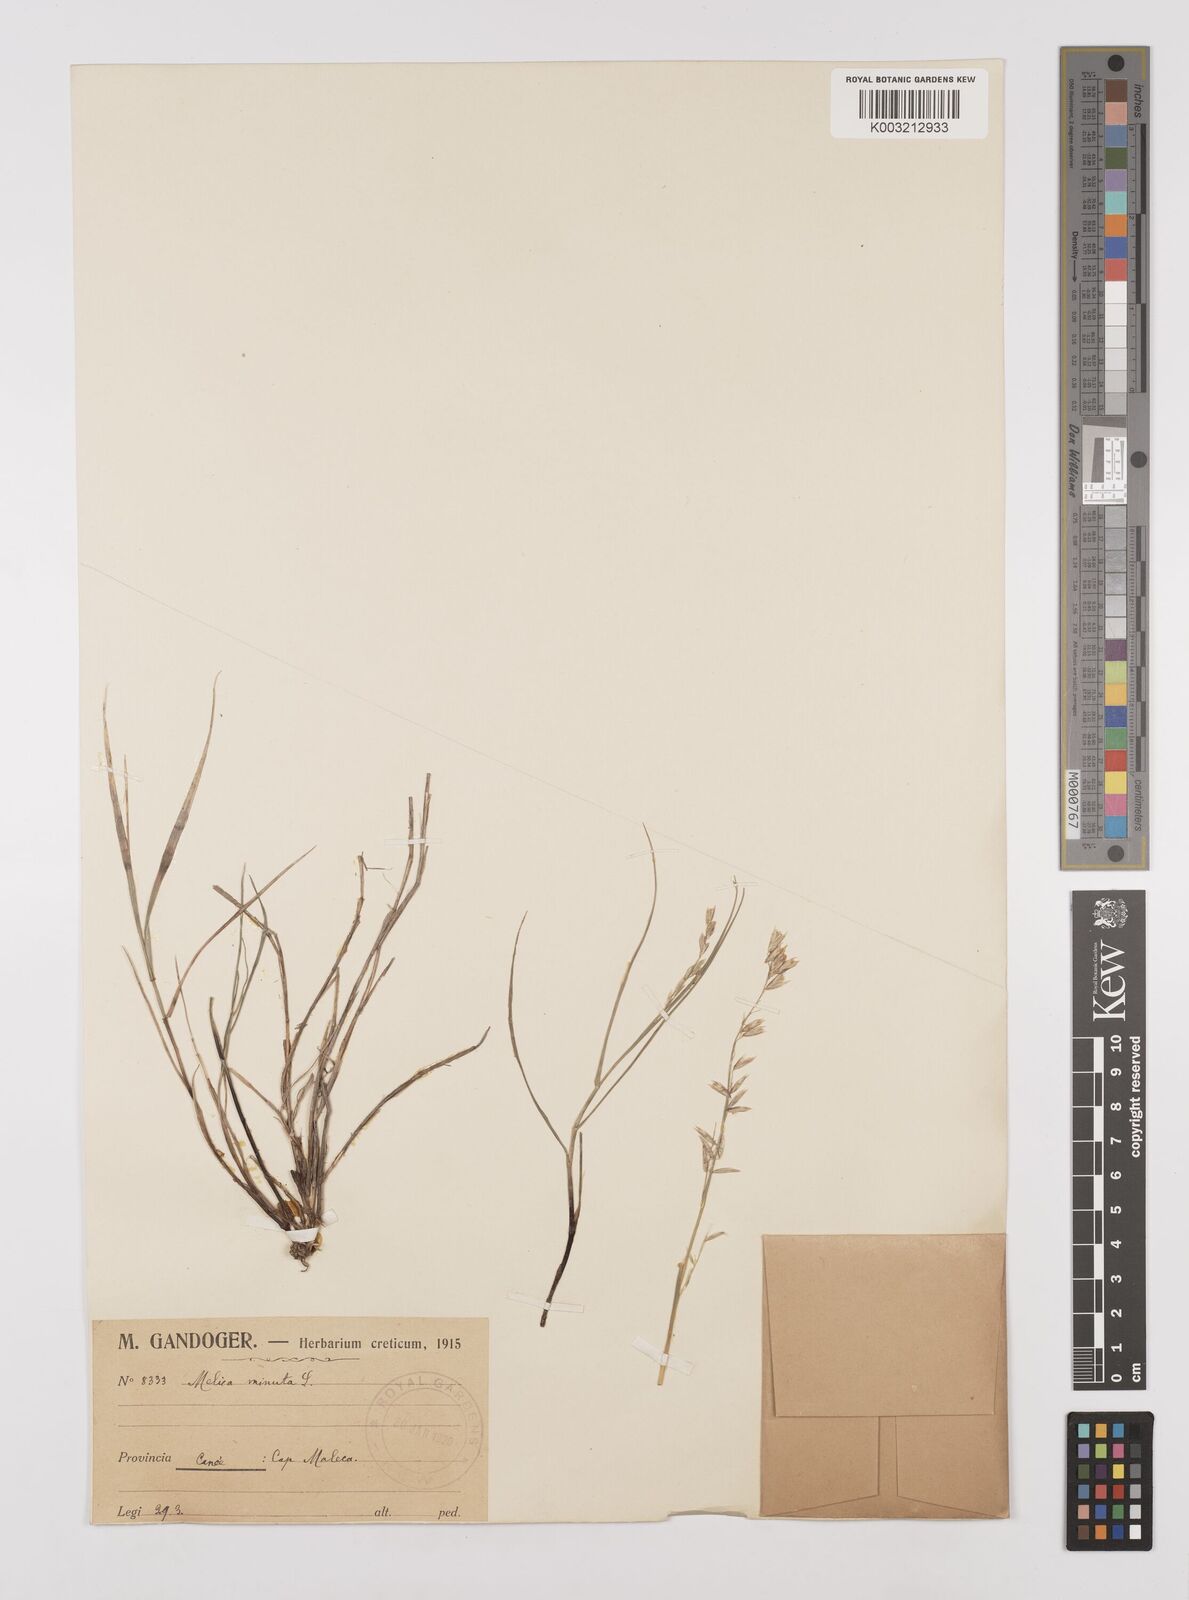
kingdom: Plantae
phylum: Tracheophyta
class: Liliopsida
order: Poales
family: Poaceae
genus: Melica
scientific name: Melica minuta
